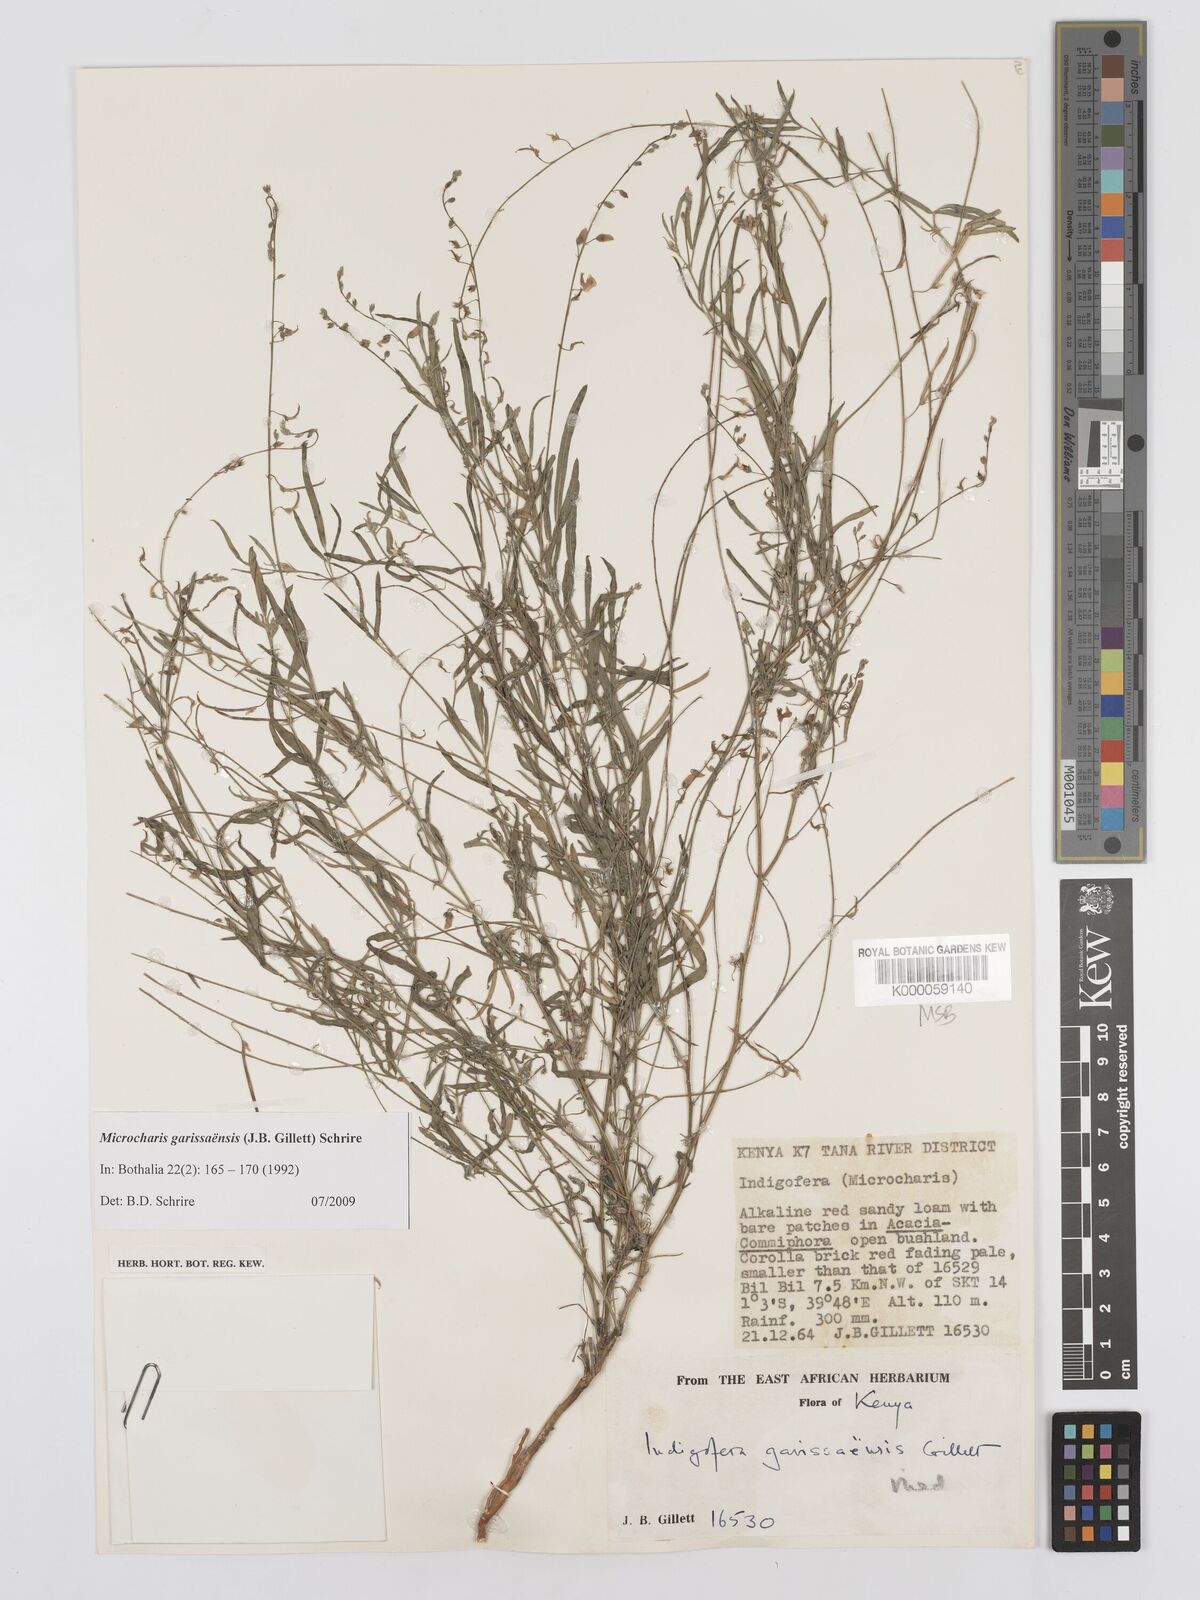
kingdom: Plantae
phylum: Tracheophyta
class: Magnoliopsida
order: Fabales
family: Fabaceae
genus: Microcharis
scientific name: Microcharis garissaensis
